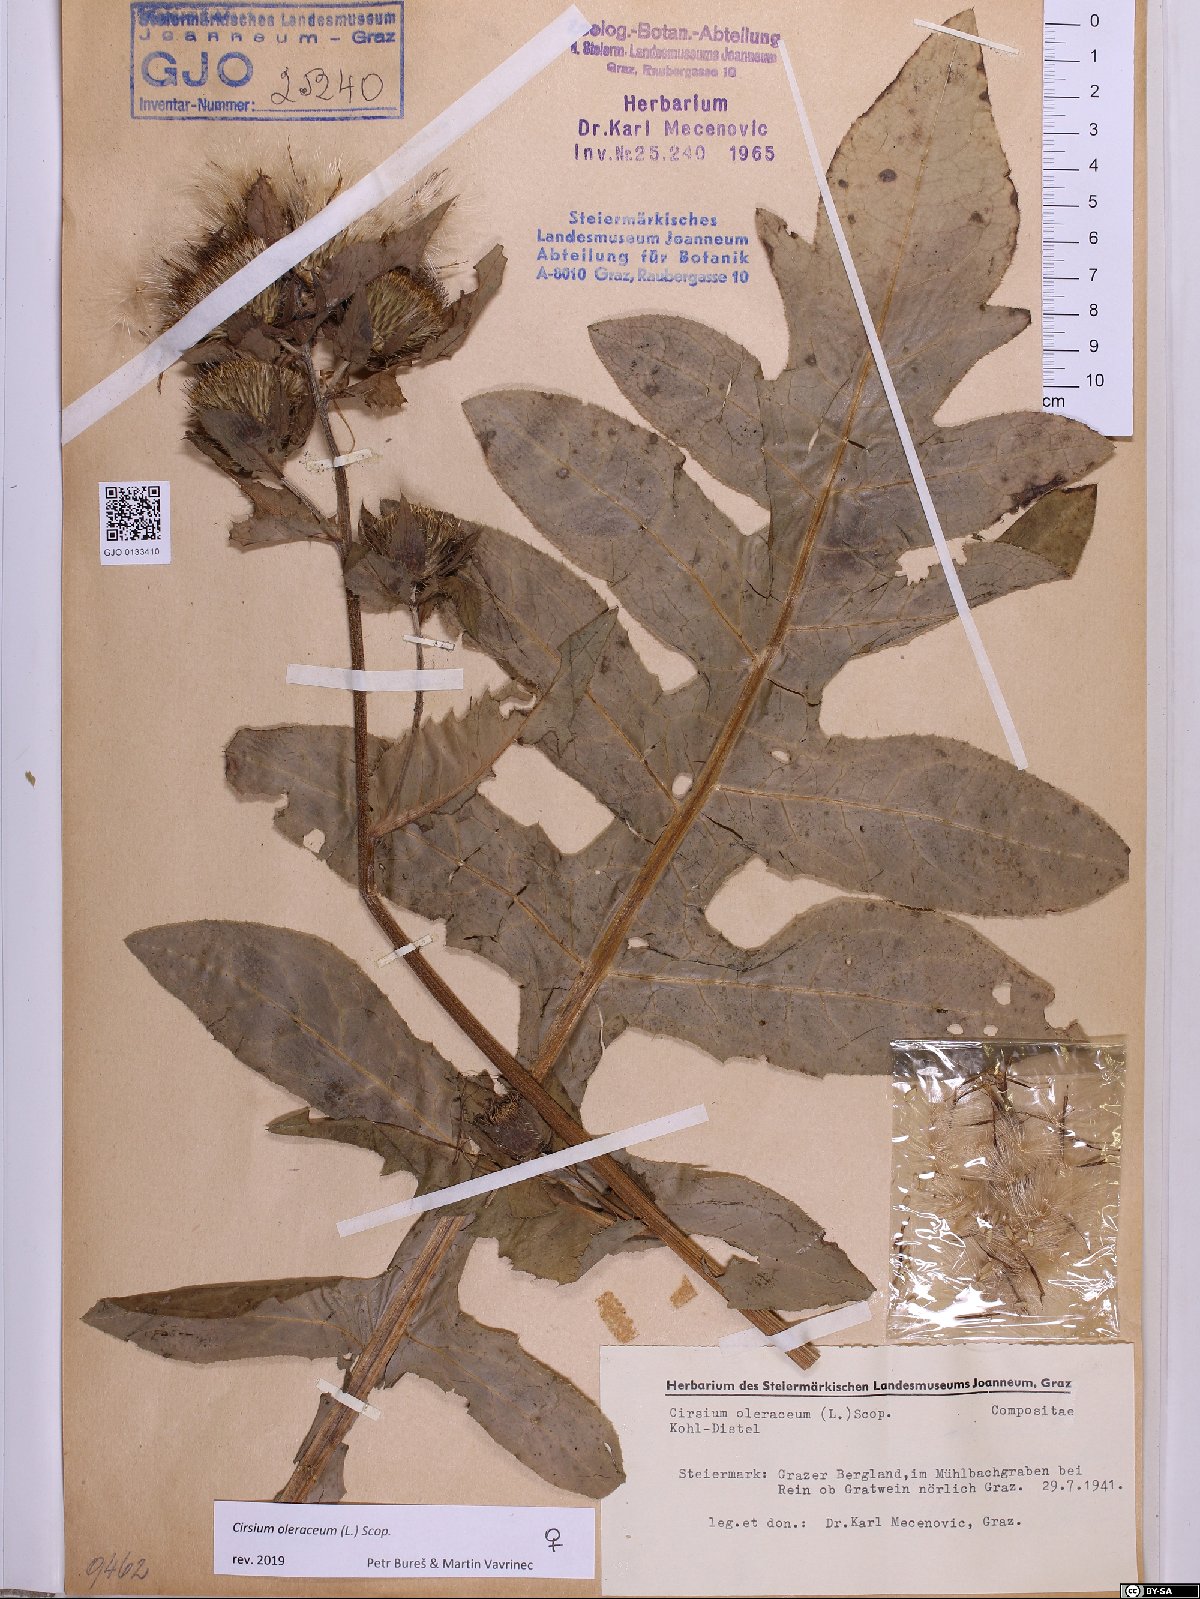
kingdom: Plantae
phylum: Tracheophyta
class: Magnoliopsida
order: Asterales
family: Asteraceae
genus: Cirsium
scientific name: Cirsium oleraceum
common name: Cabbage thistle
